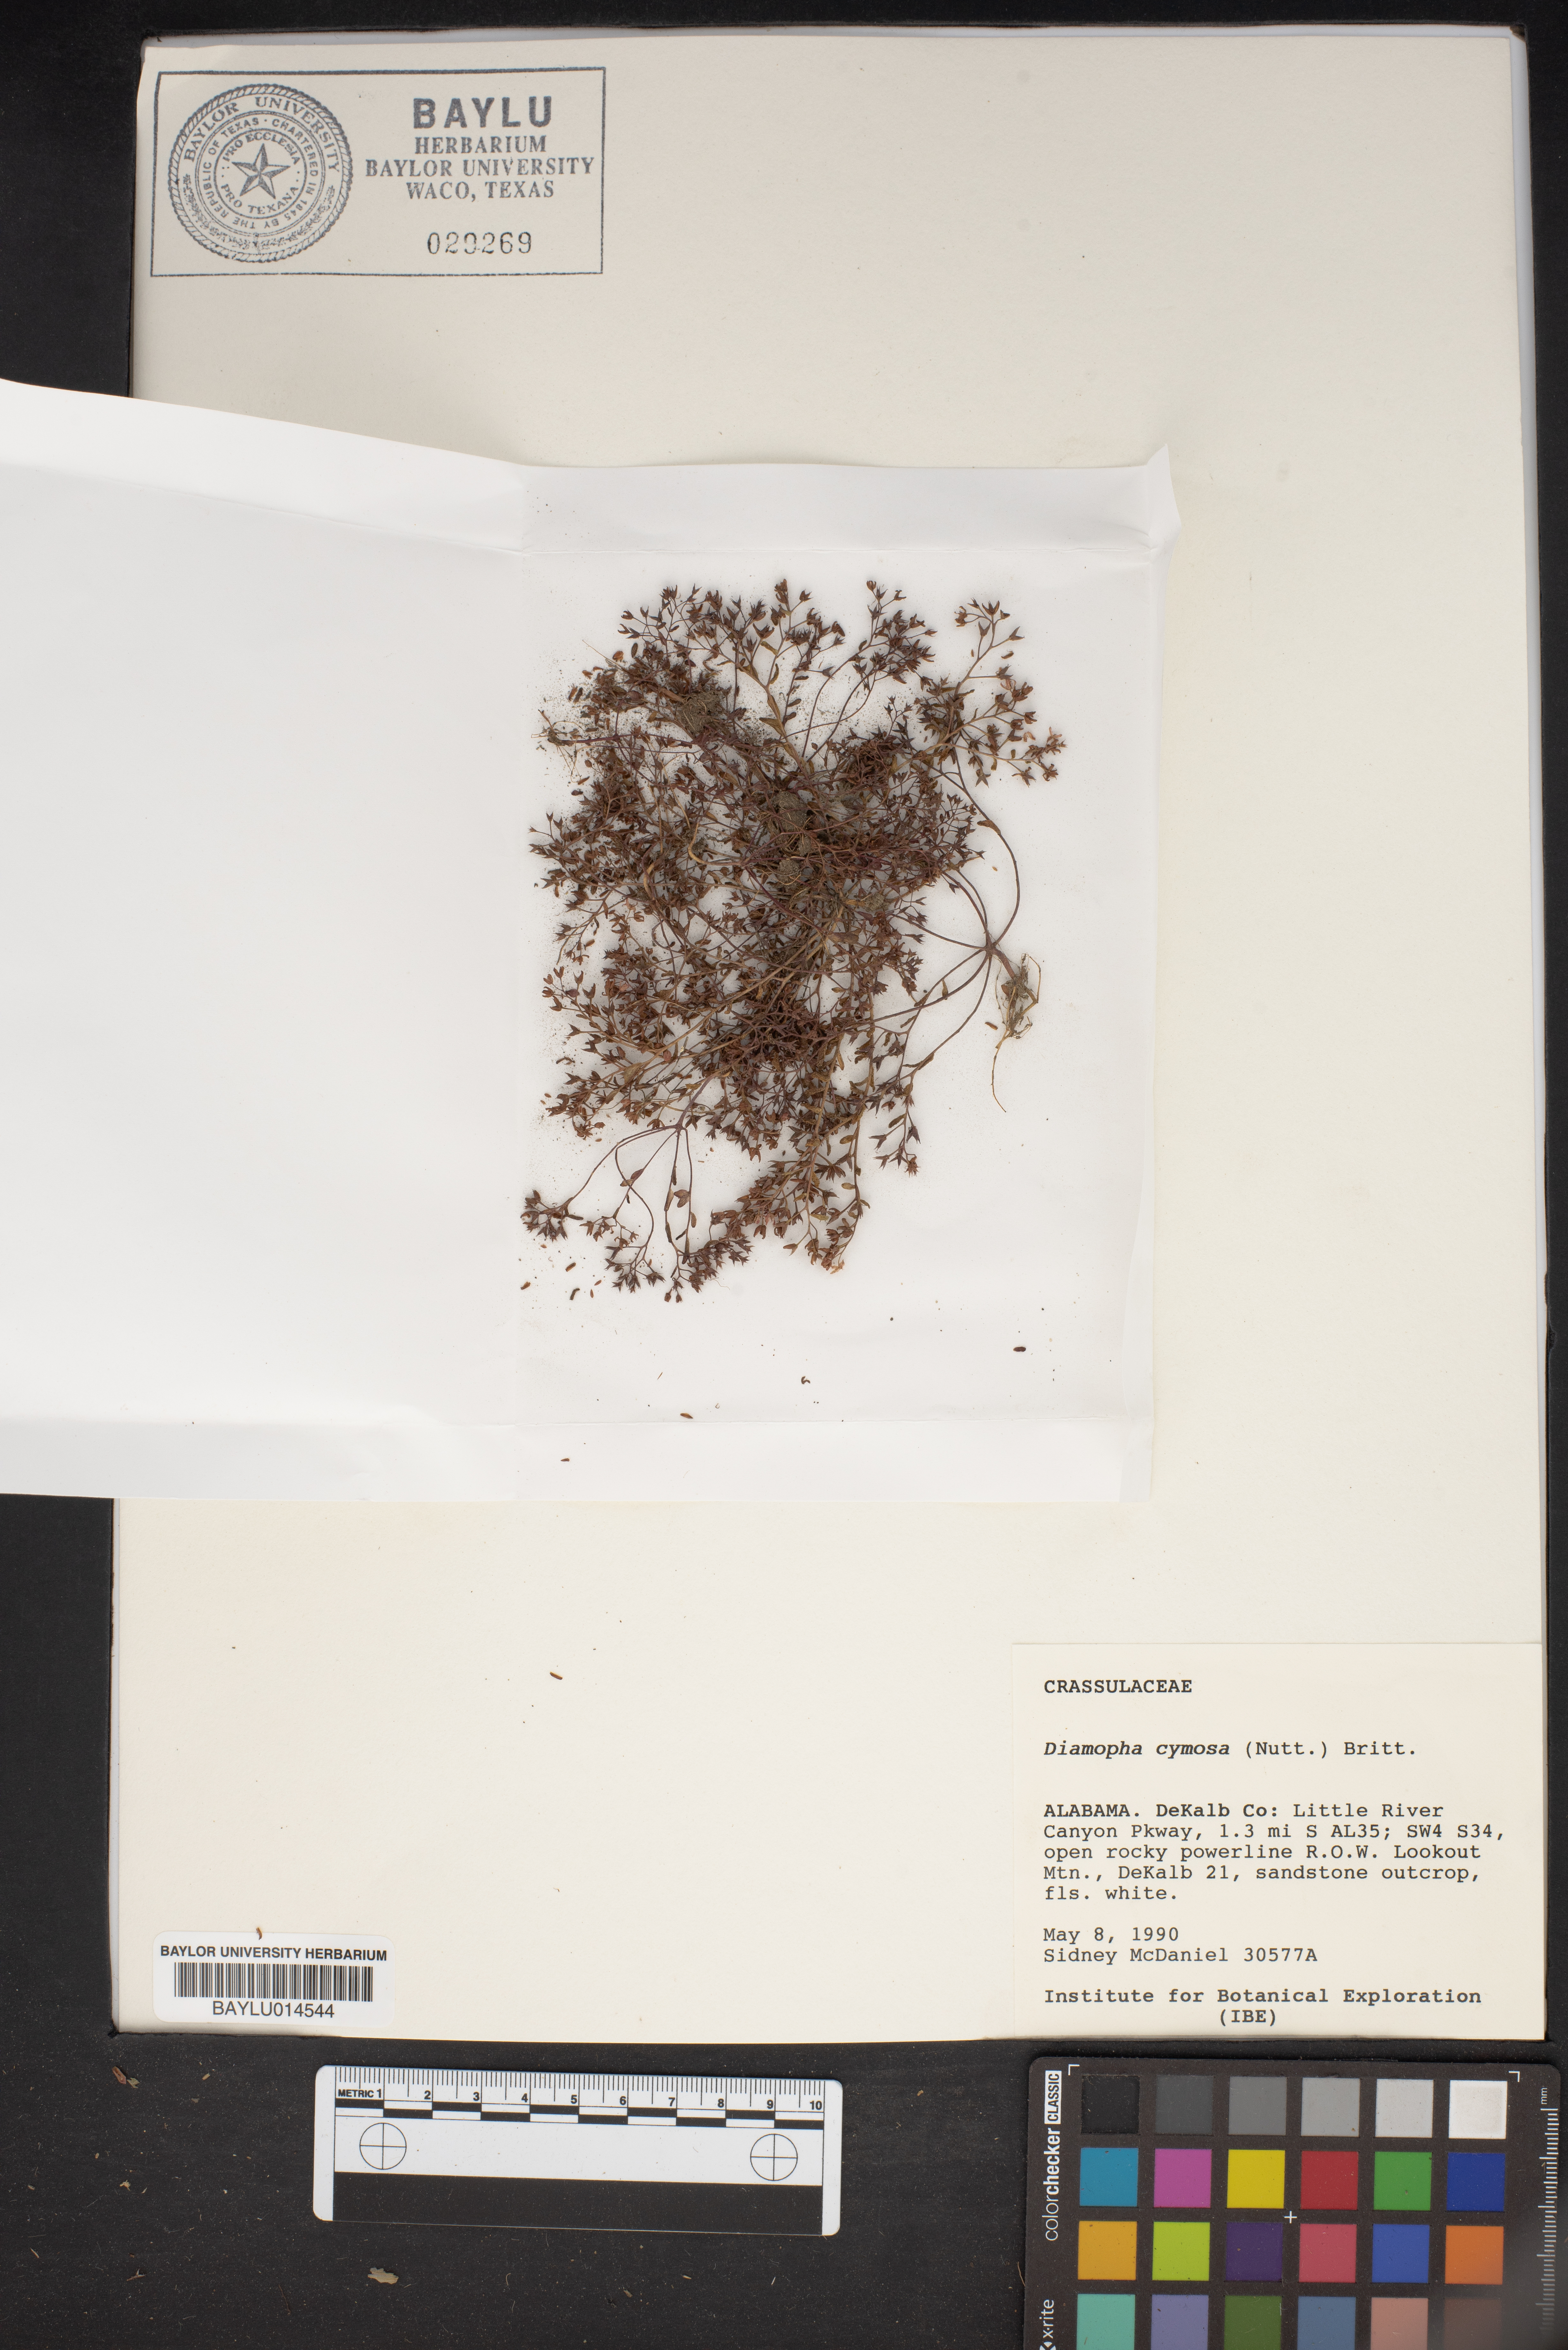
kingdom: Plantae
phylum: Tracheophyta
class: Magnoliopsida
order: Saxifragales
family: Crassulaceae
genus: Sedum
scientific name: Sedum smallii
